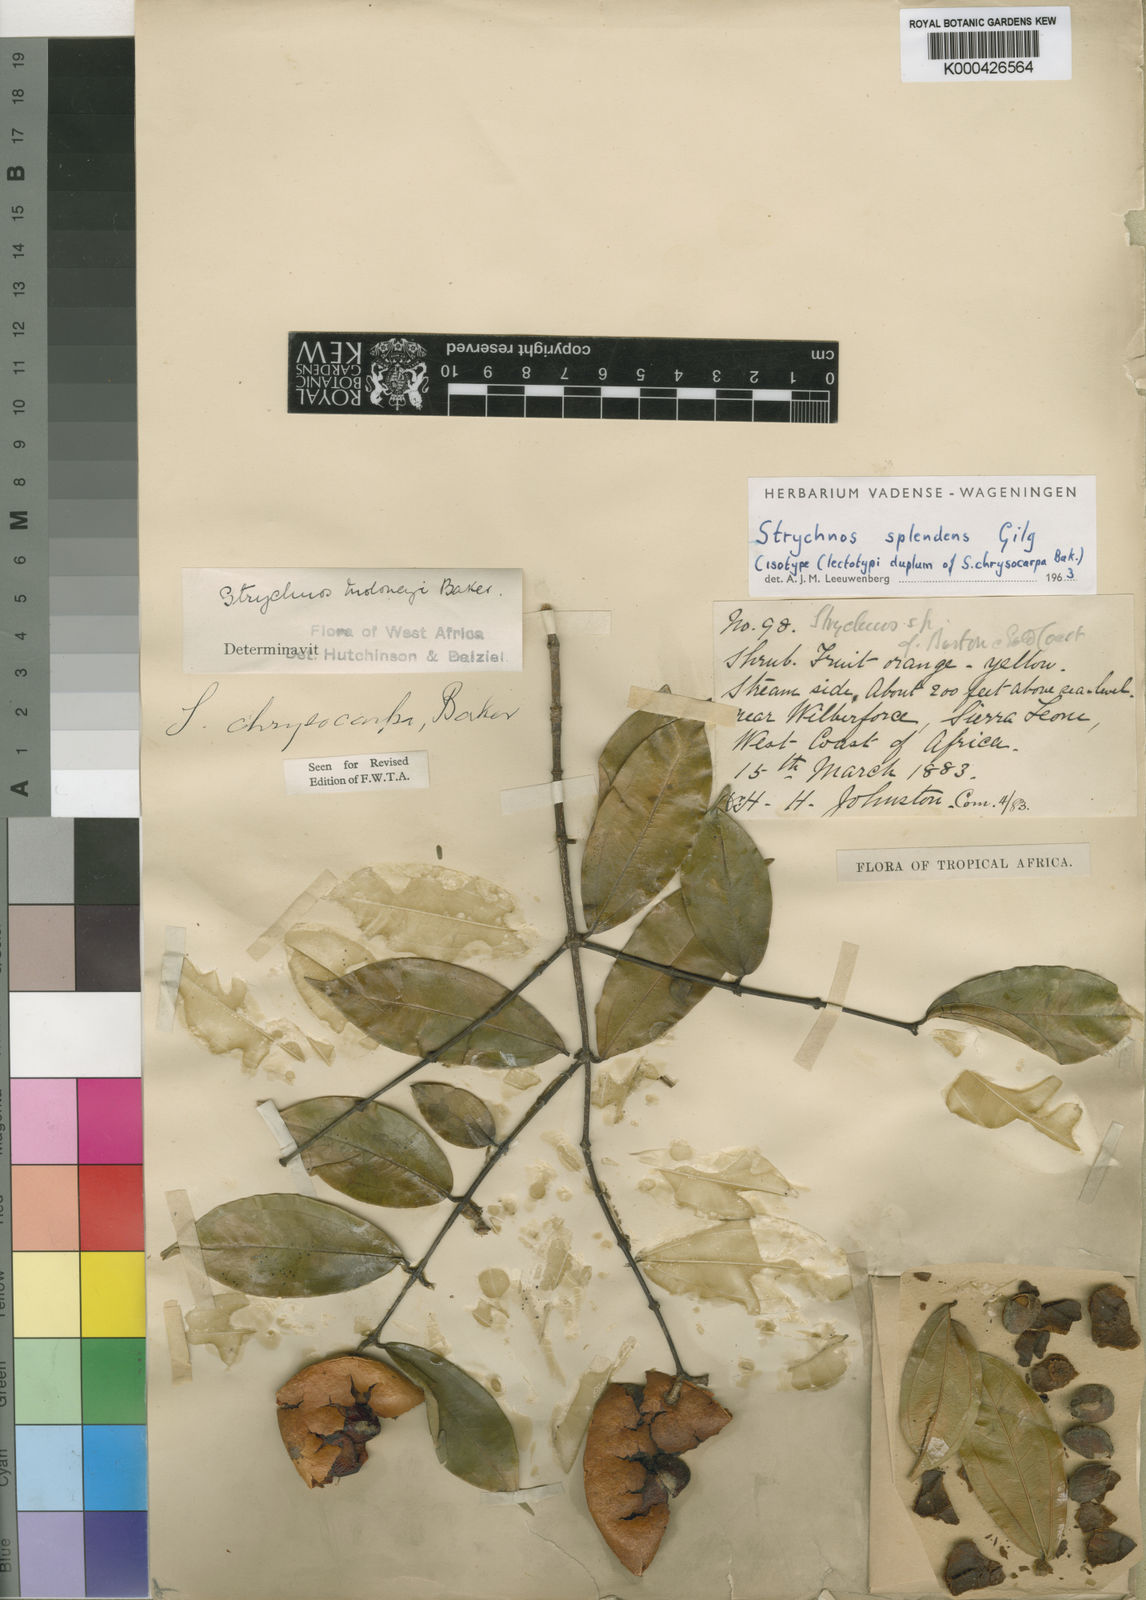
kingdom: Plantae
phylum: Tracheophyta
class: Magnoliopsida
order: Gentianales
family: Loganiaceae
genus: Strychnos
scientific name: Strychnos splendens
